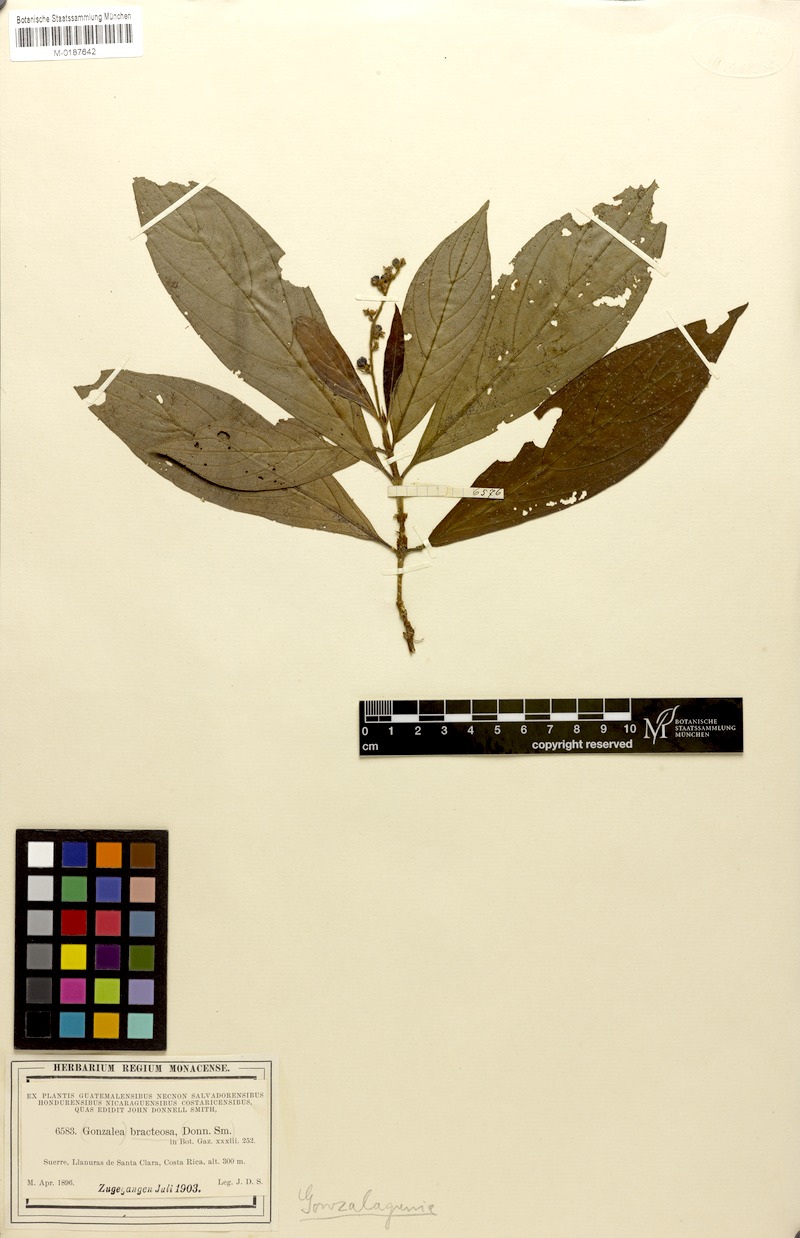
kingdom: Plantae
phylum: Tracheophyta
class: Magnoliopsida
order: Gentianales
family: Rubiaceae
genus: Bertiera
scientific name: Bertiera bracteosa
